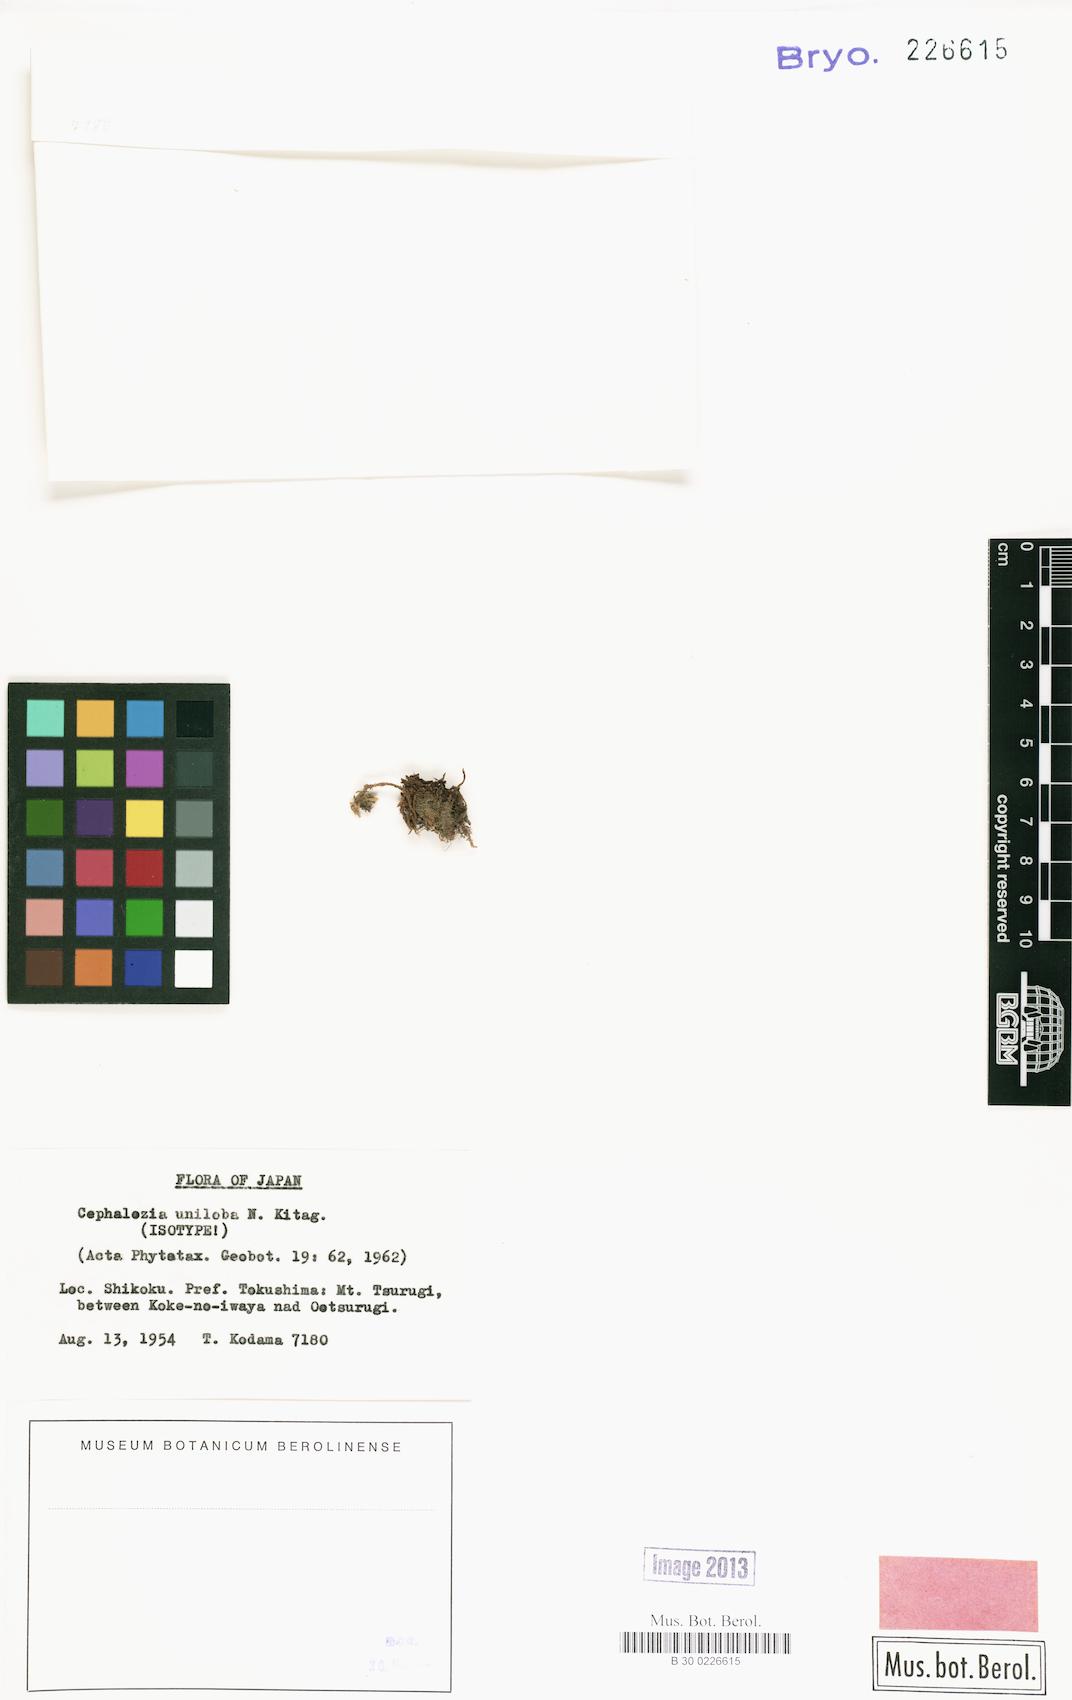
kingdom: Plantae
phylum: Marchantiophyta
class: Jungermanniopsida
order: Jungermanniales
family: Cephaloziaceae
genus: Fuscocephaloziopsis
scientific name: Fuscocephaloziopsis leucantha
